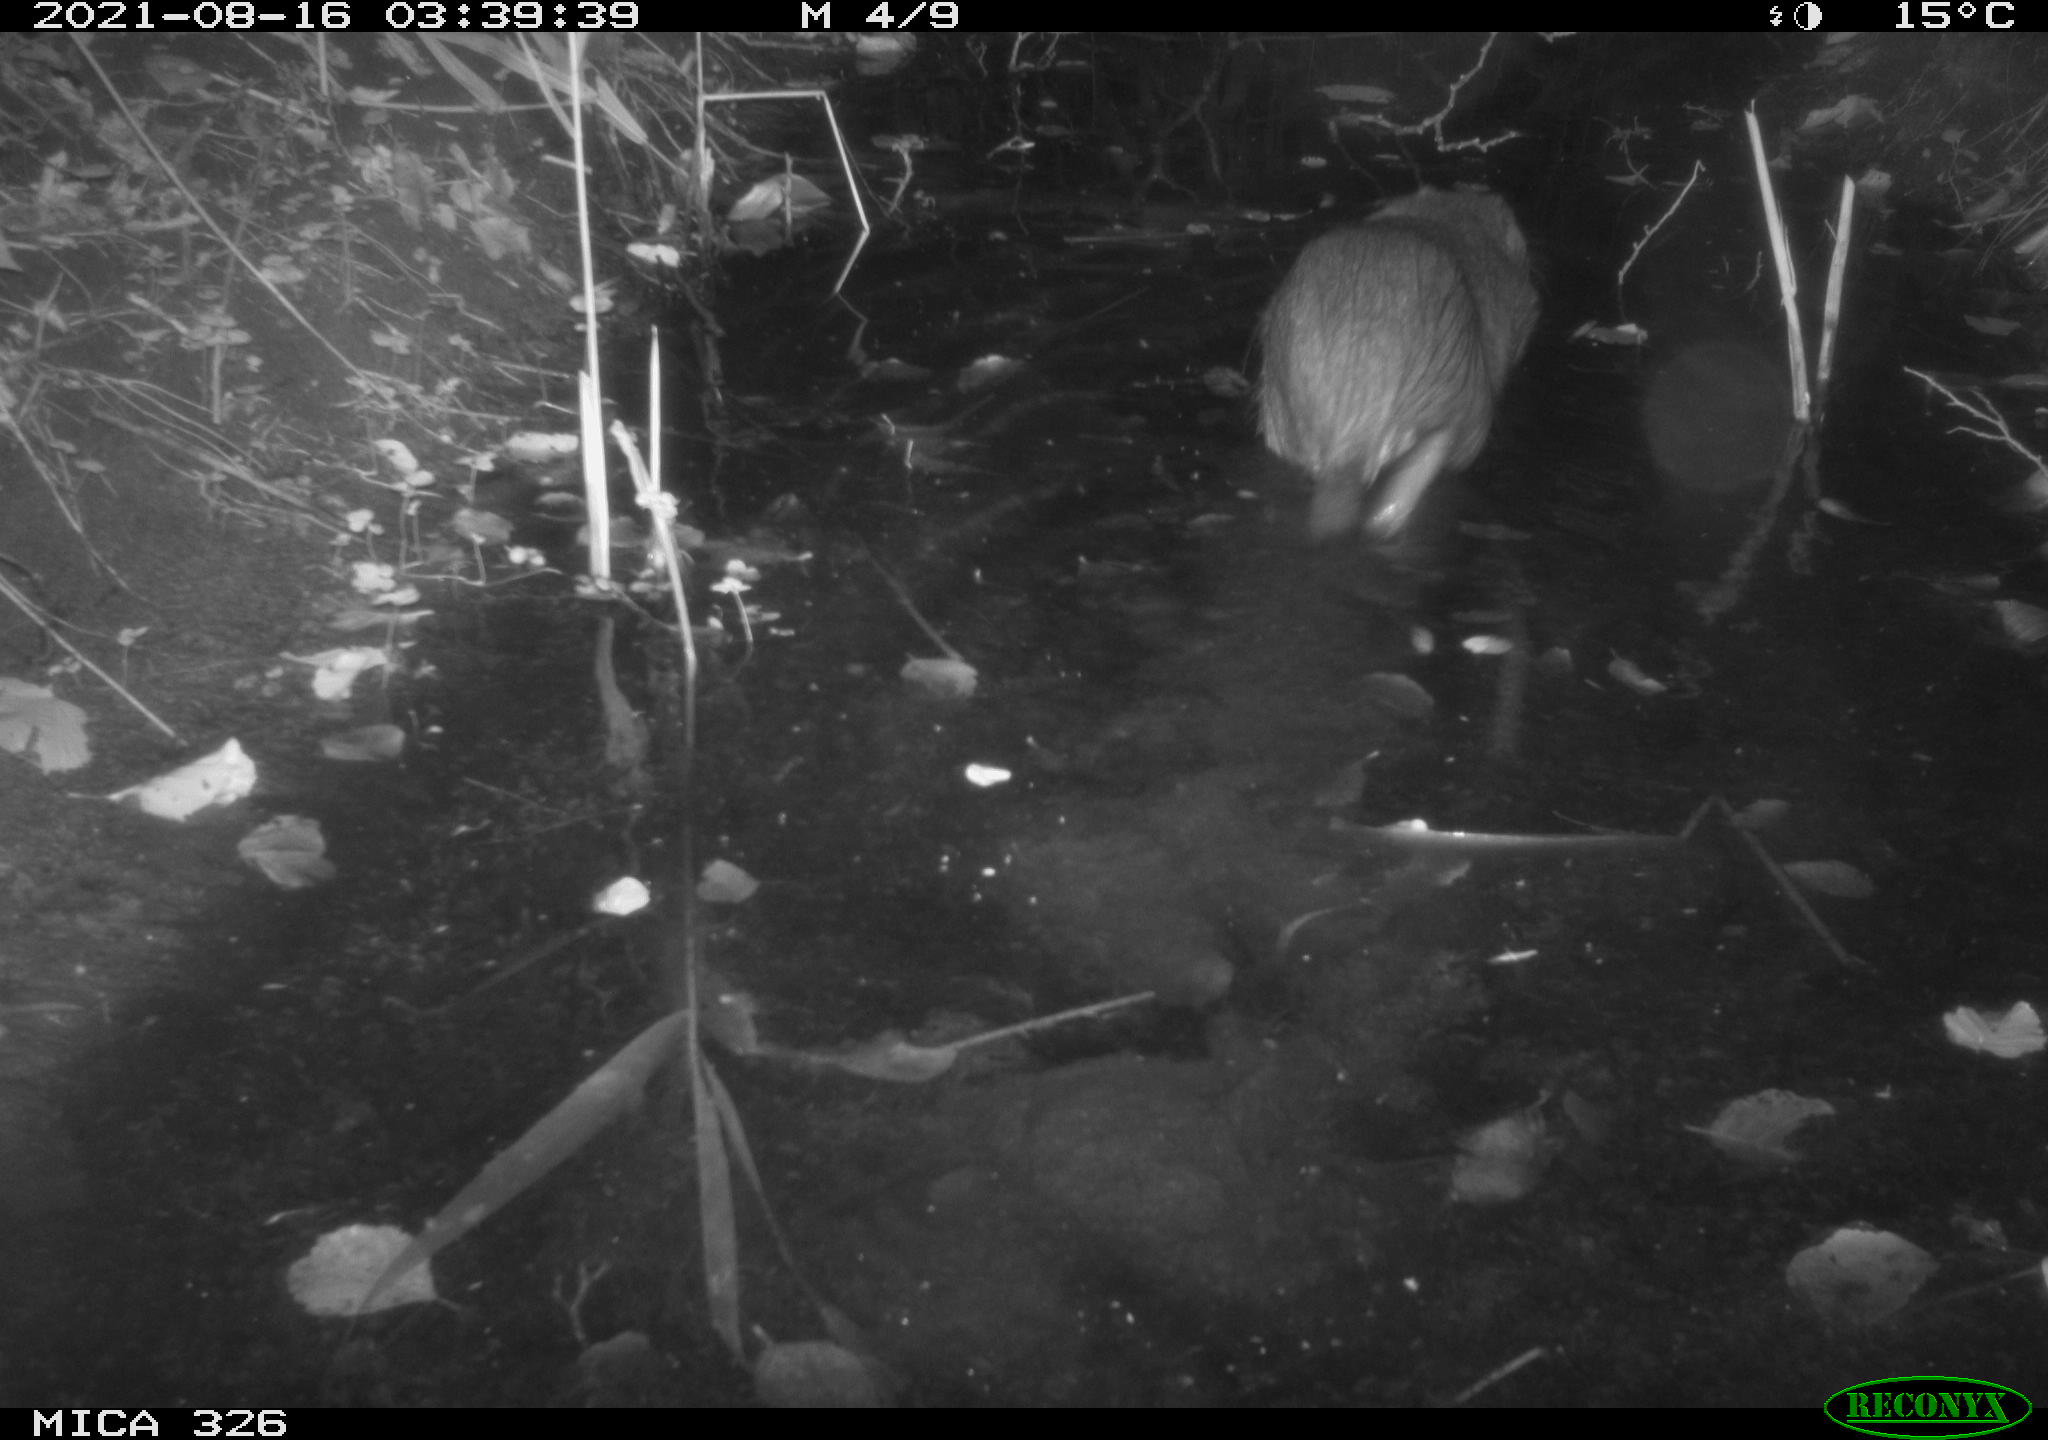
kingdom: Animalia
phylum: Chordata
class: Mammalia
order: Rodentia
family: Myocastoridae
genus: Myocastor
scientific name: Myocastor coypus
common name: Coypu
